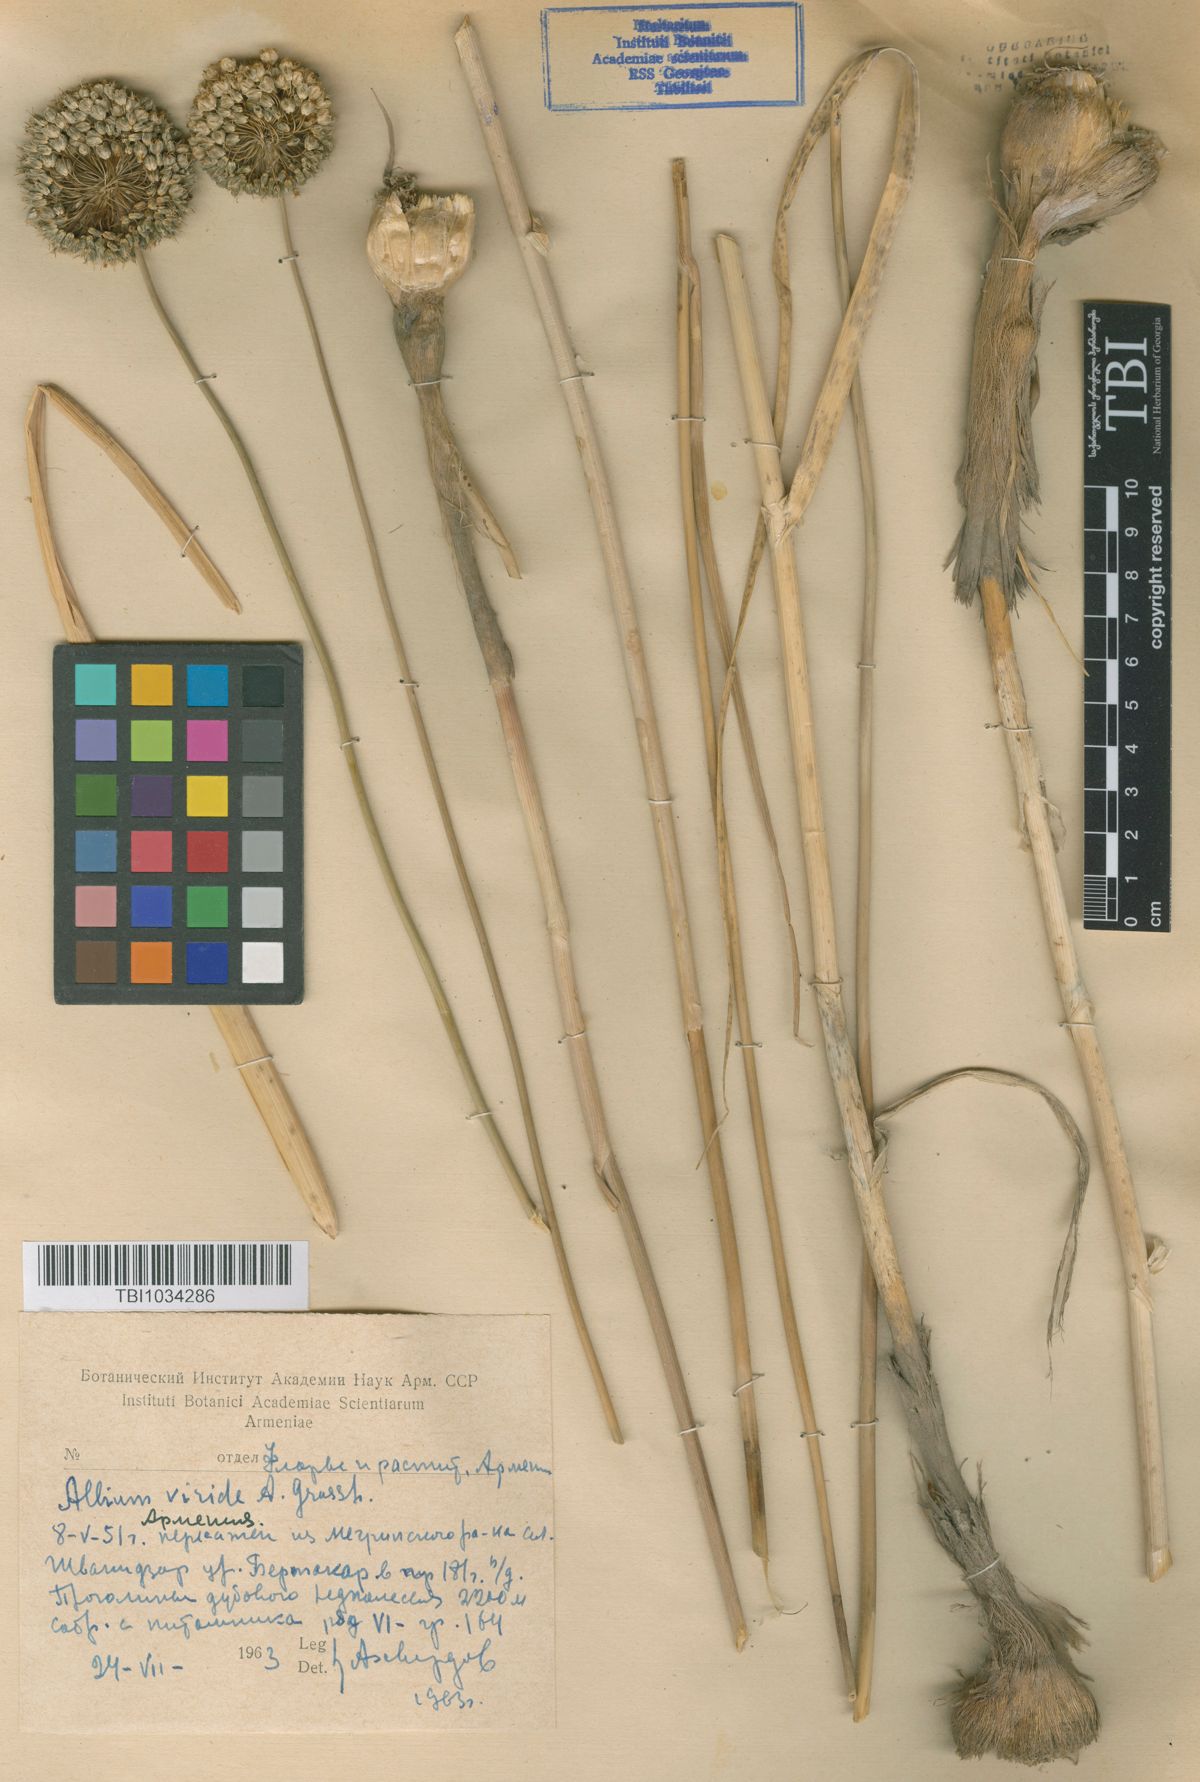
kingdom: Plantae
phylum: Tracheophyta
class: Liliopsida
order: Asparagales
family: Amaryllidaceae
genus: Allium
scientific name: Allium dictyoprasum
